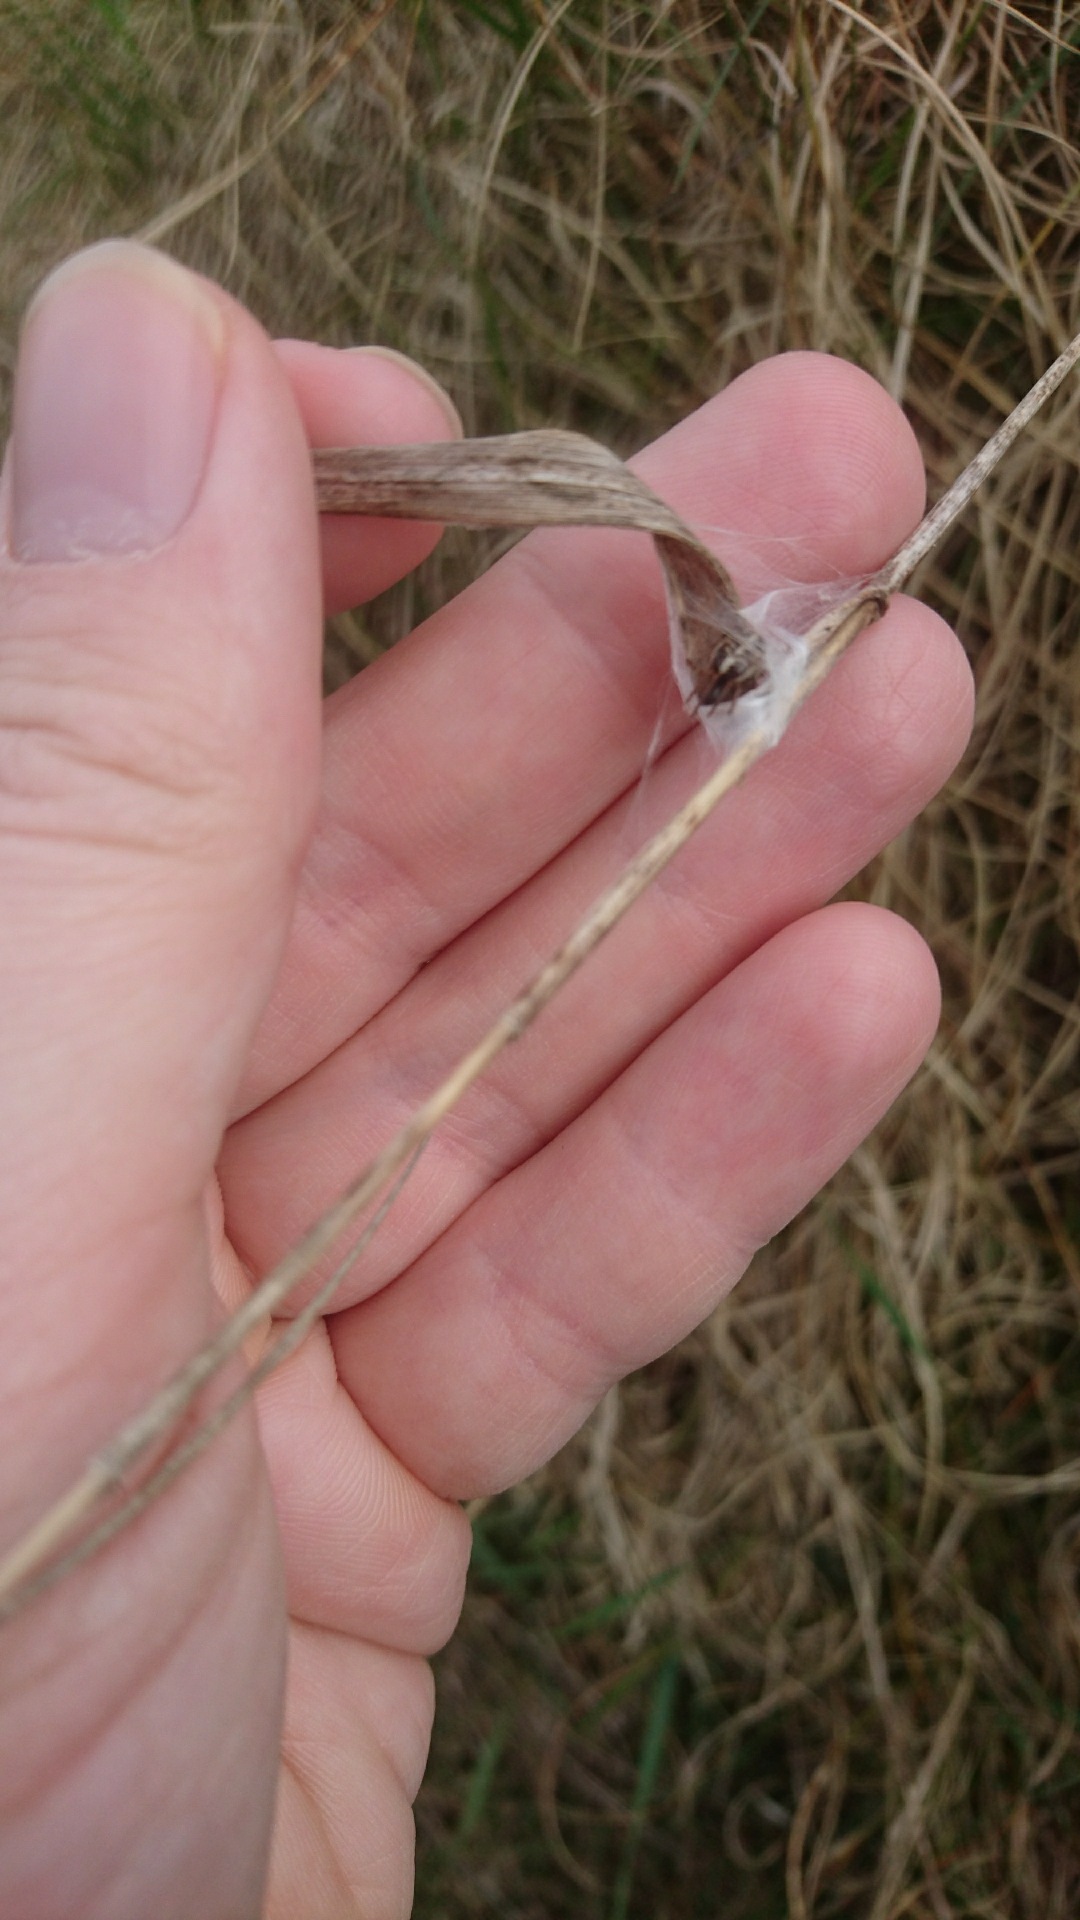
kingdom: Animalia
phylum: Arthropoda
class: Arachnida
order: Araneae
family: Araneidae
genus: Singa
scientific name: Singa hamata
